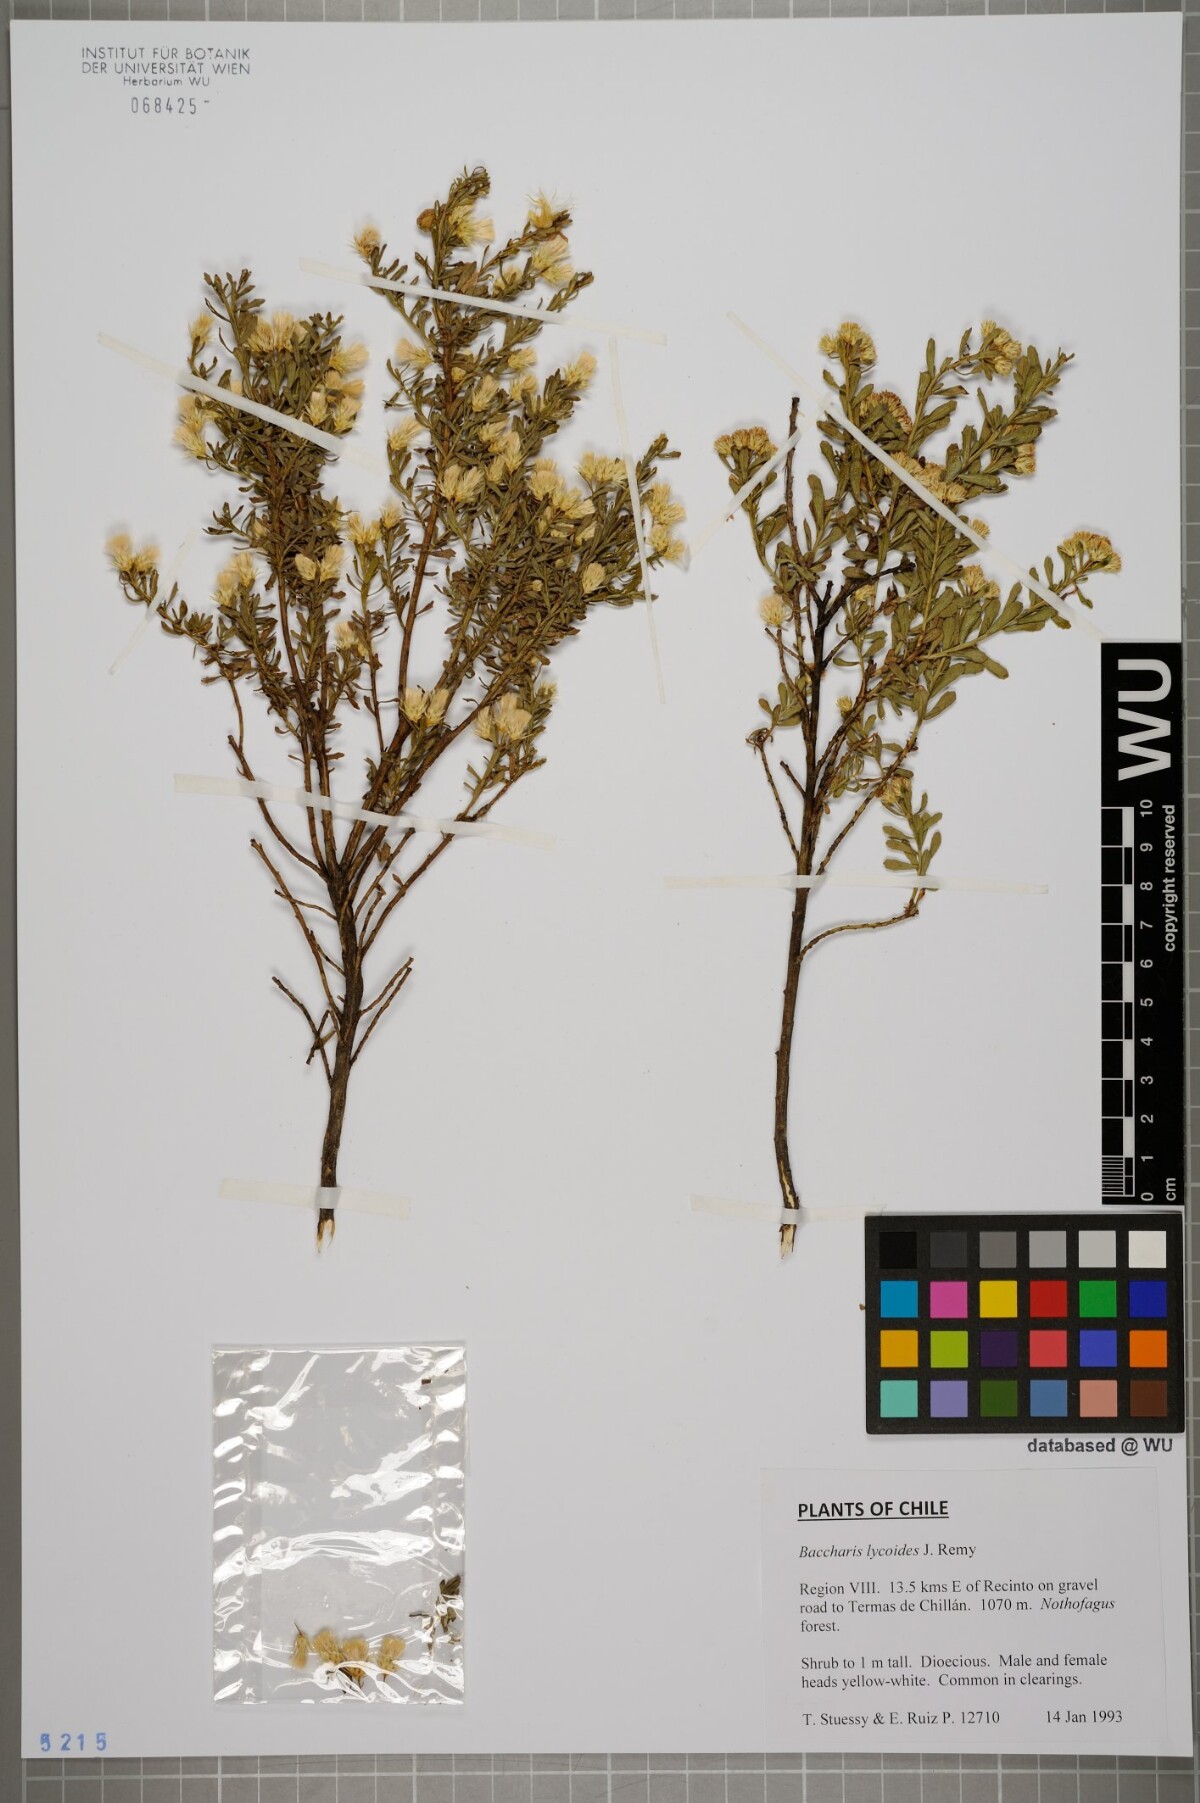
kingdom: Plantae
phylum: Tracheophyta
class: Magnoliopsida
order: Asterales
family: Asteraceae
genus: Baccharis
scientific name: Baccharis lycioides
